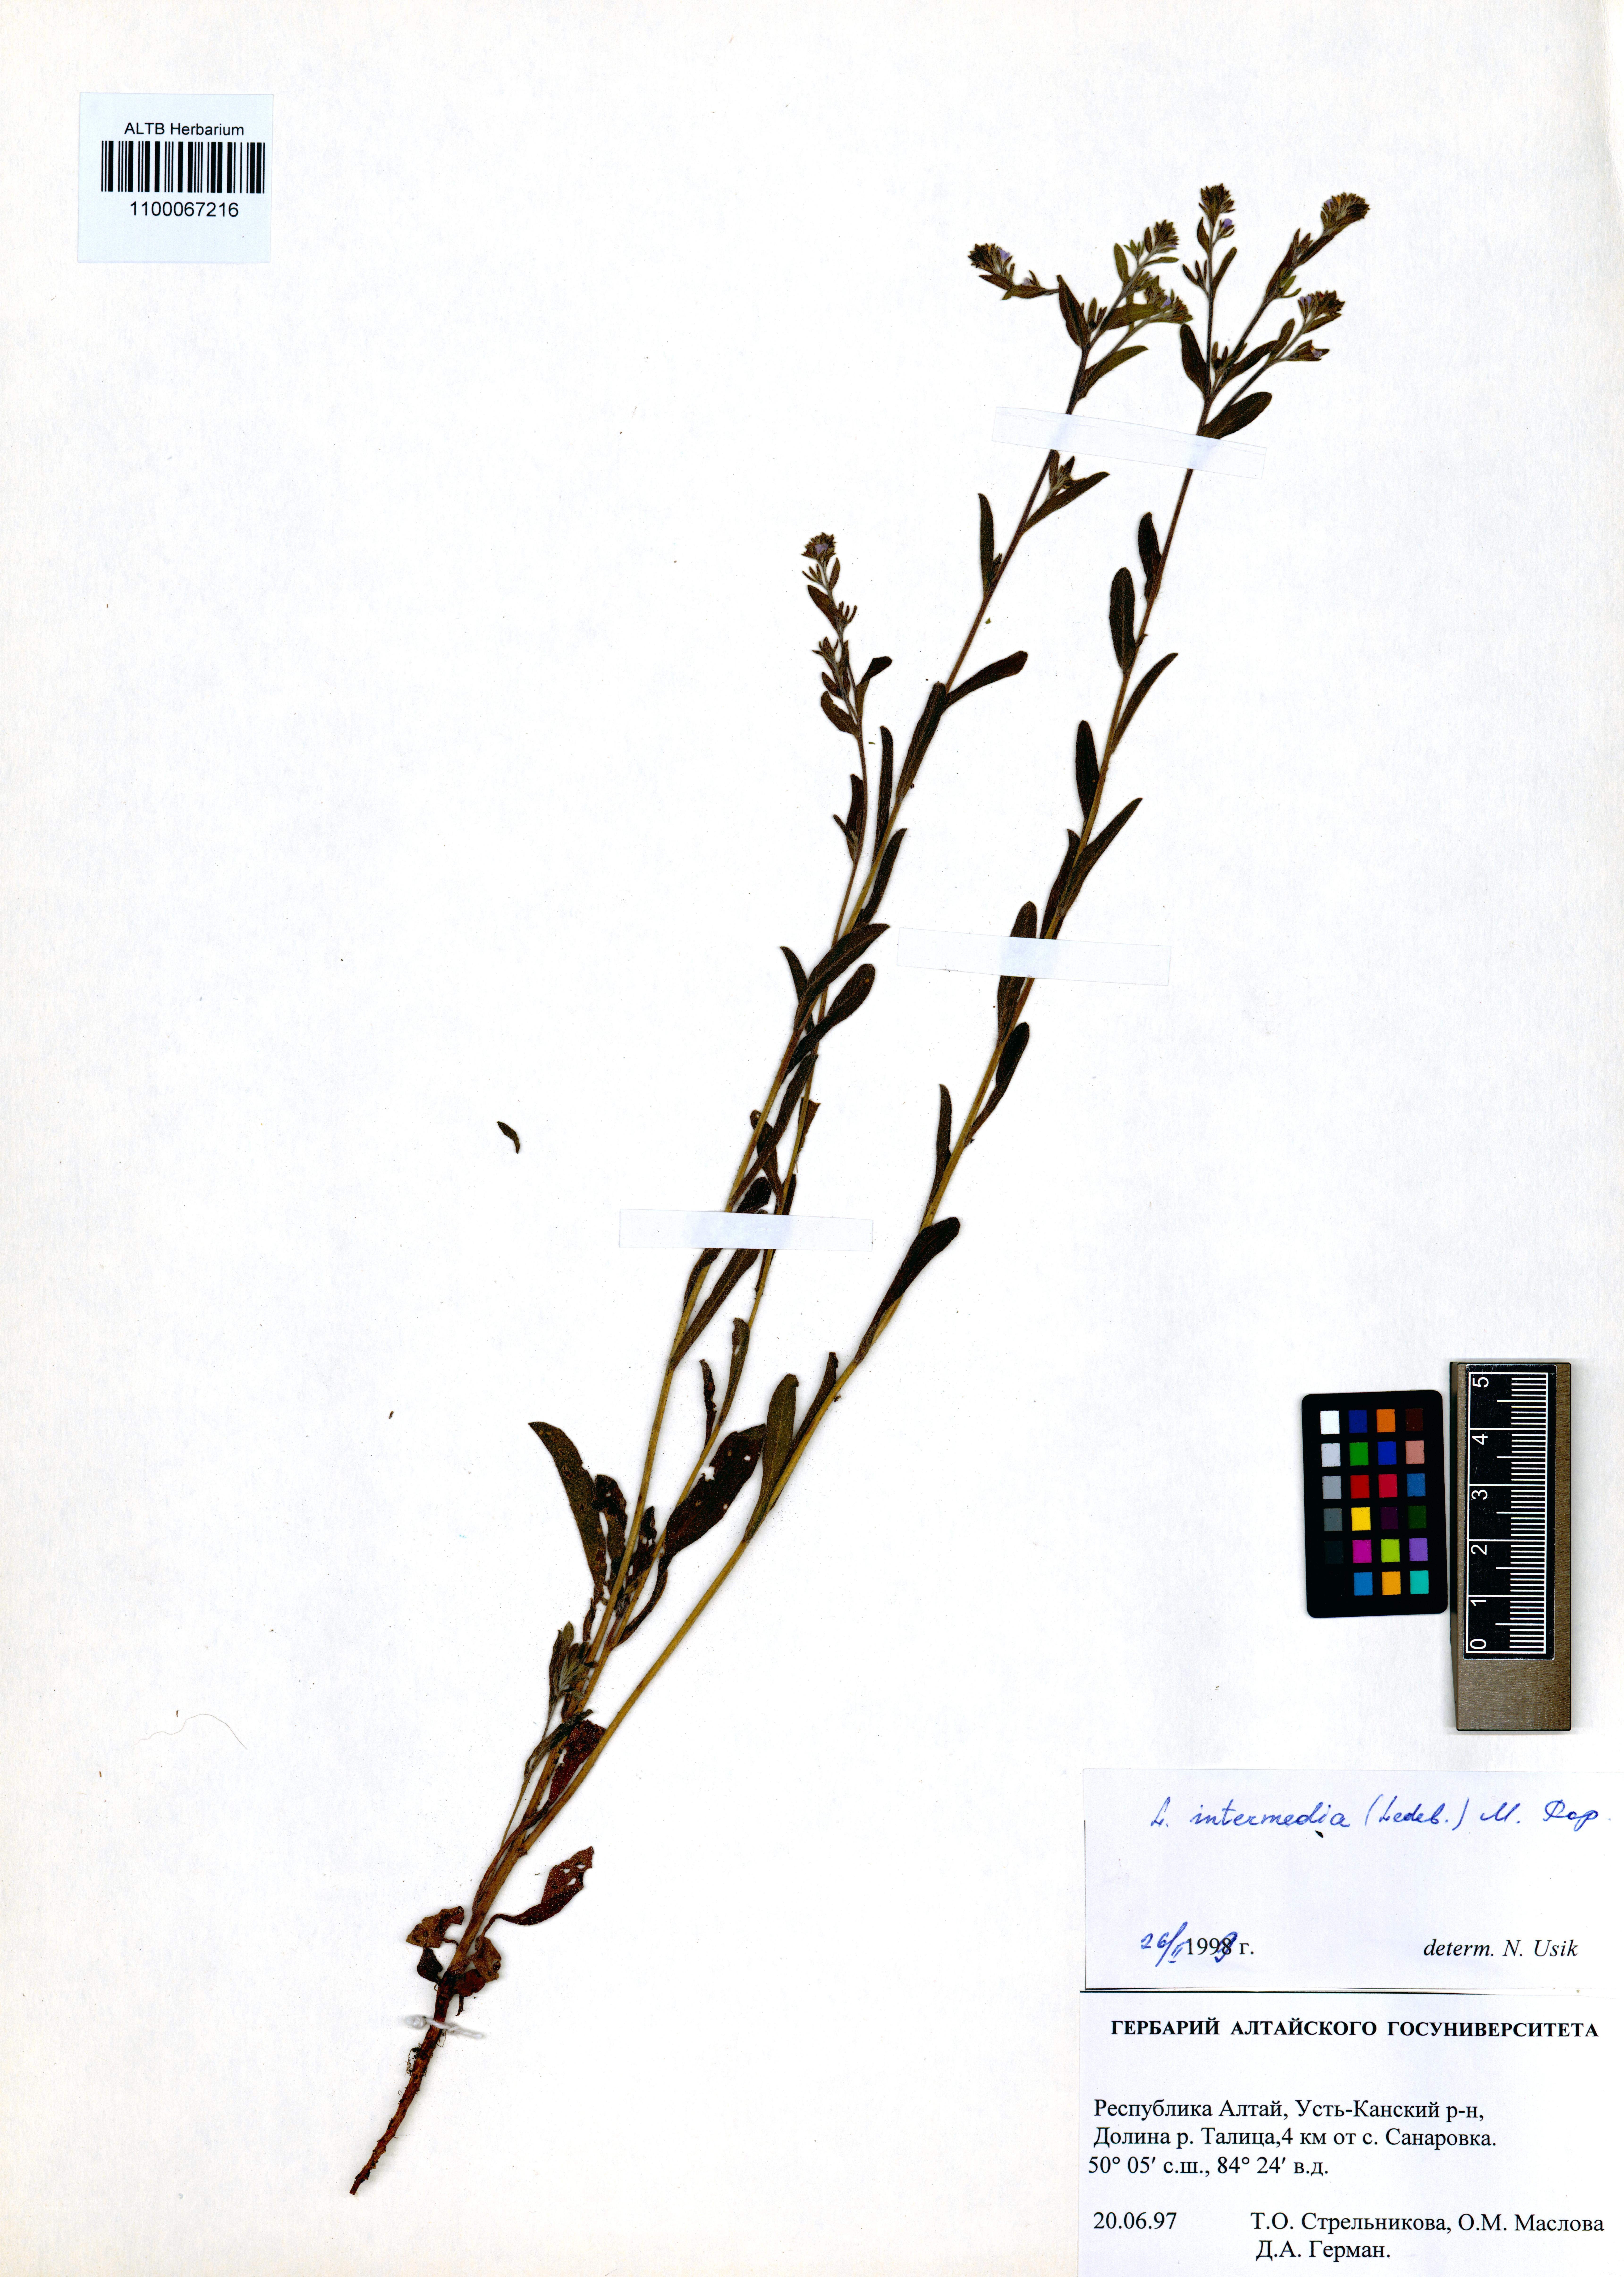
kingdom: Plantae
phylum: Tracheophyta
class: Magnoliopsida
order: Boraginales
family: Boraginaceae
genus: Lappula
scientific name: Lappula intermedia
